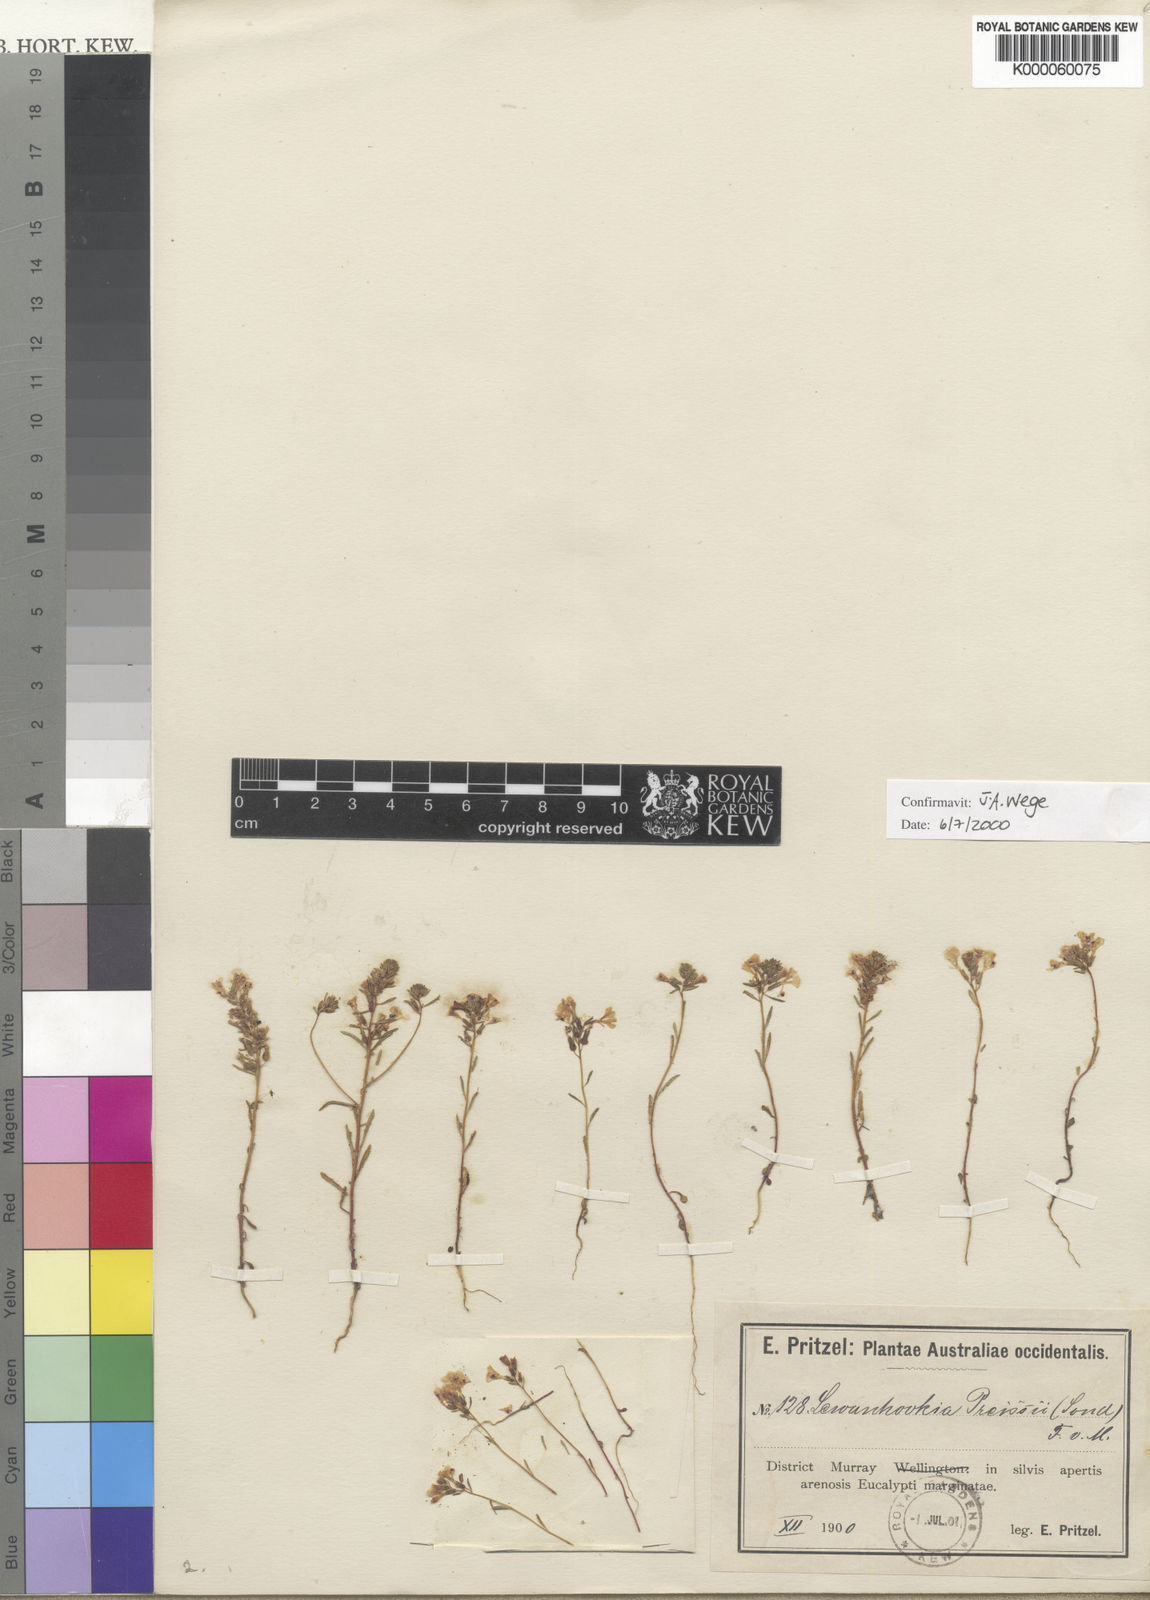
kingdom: Plantae
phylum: Tracheophyta
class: Magnoliopsida
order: Asterales
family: Stylidiaceae
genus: Levenhookia
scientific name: Levenhookia preissii
